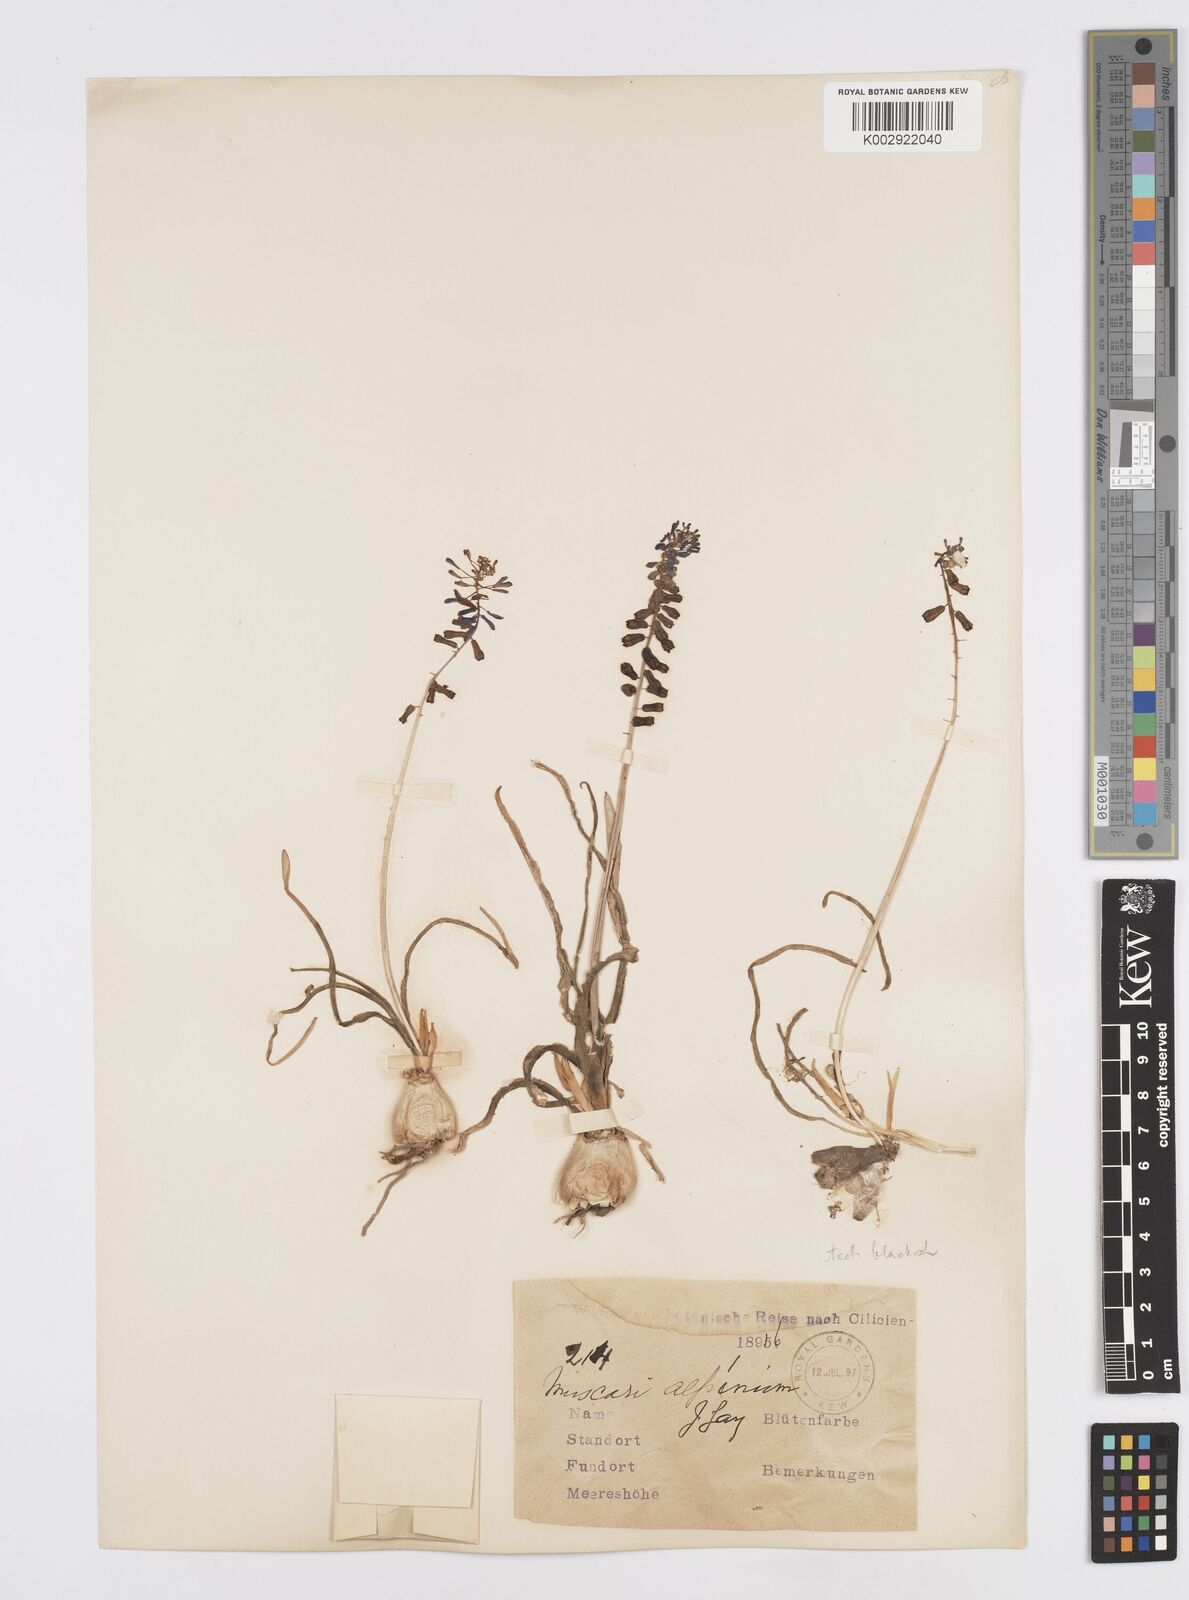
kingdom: Animalia
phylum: Mollusca
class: Cephalopoda
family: Neocomitidae
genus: Leopoldia
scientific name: Leopoldia
